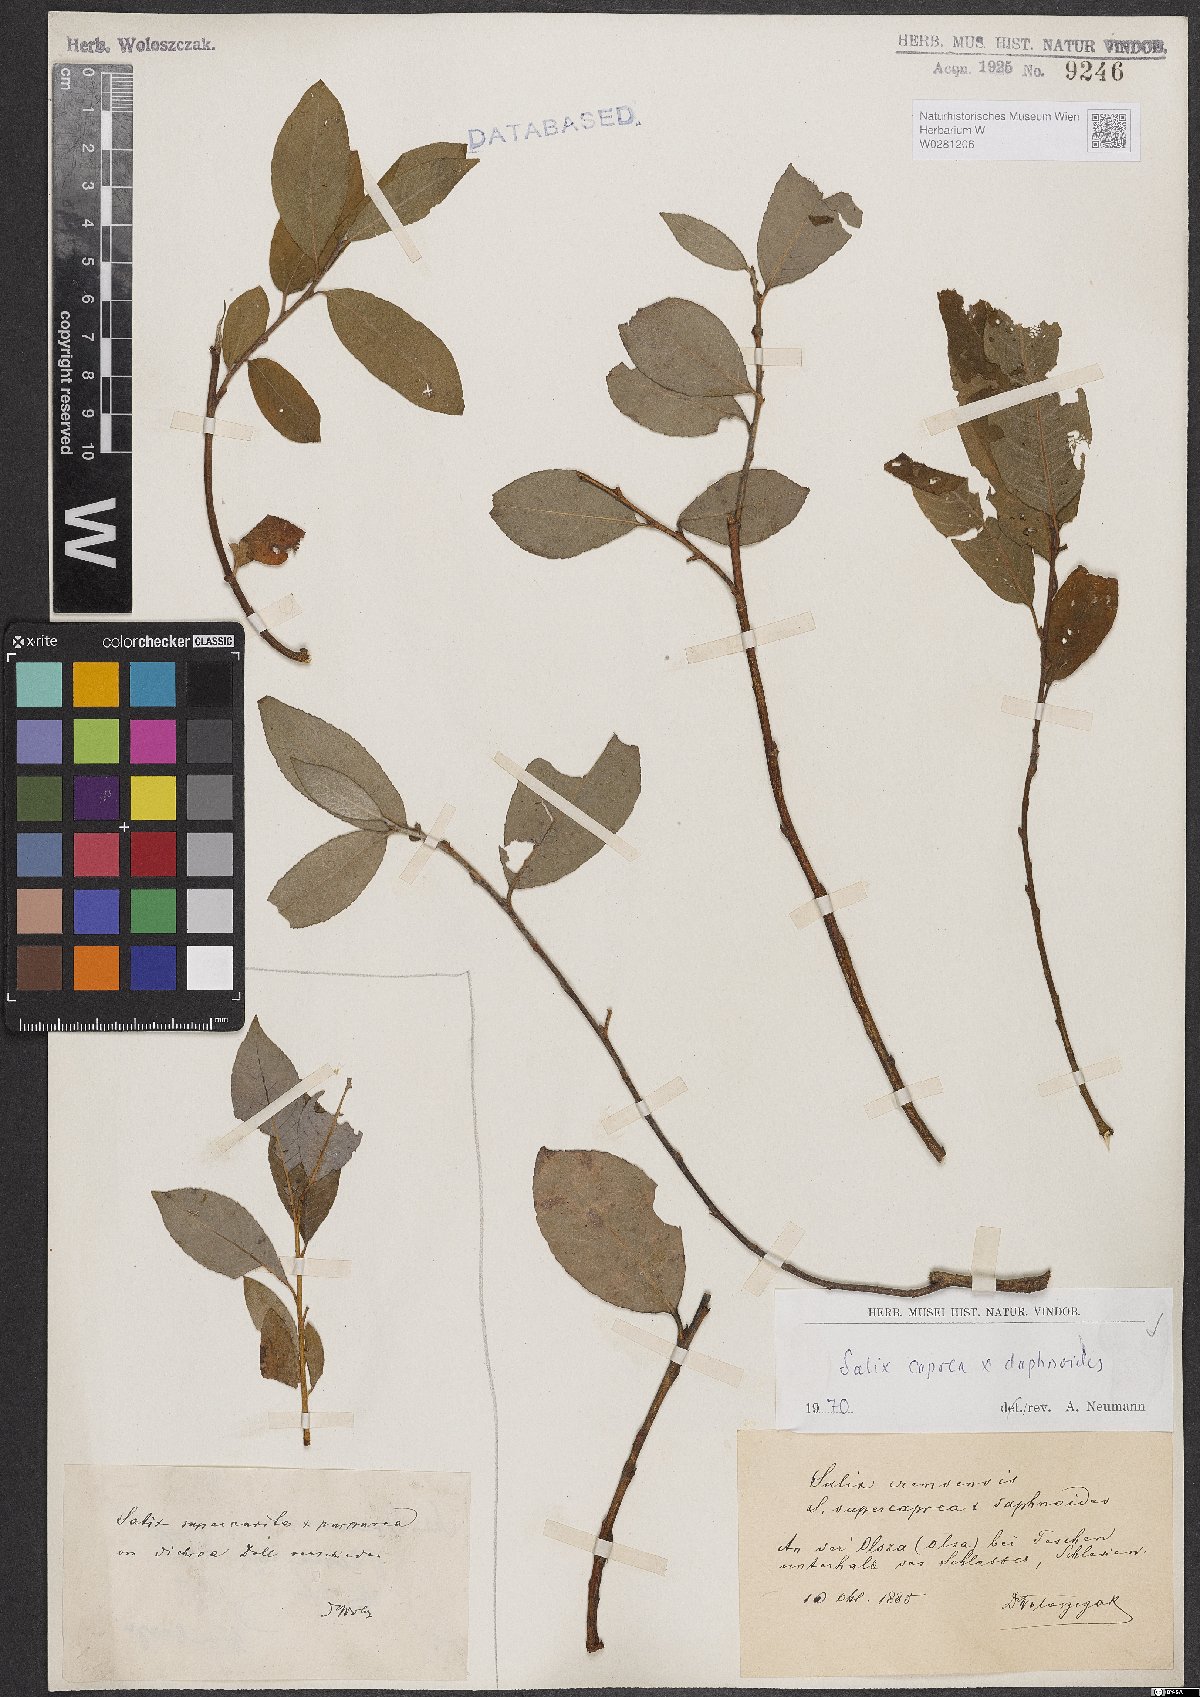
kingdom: Plantae
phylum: Tracheophyta
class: Magnoliopsida
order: Malpighiales
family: Salicaceae
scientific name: Salicaceae
